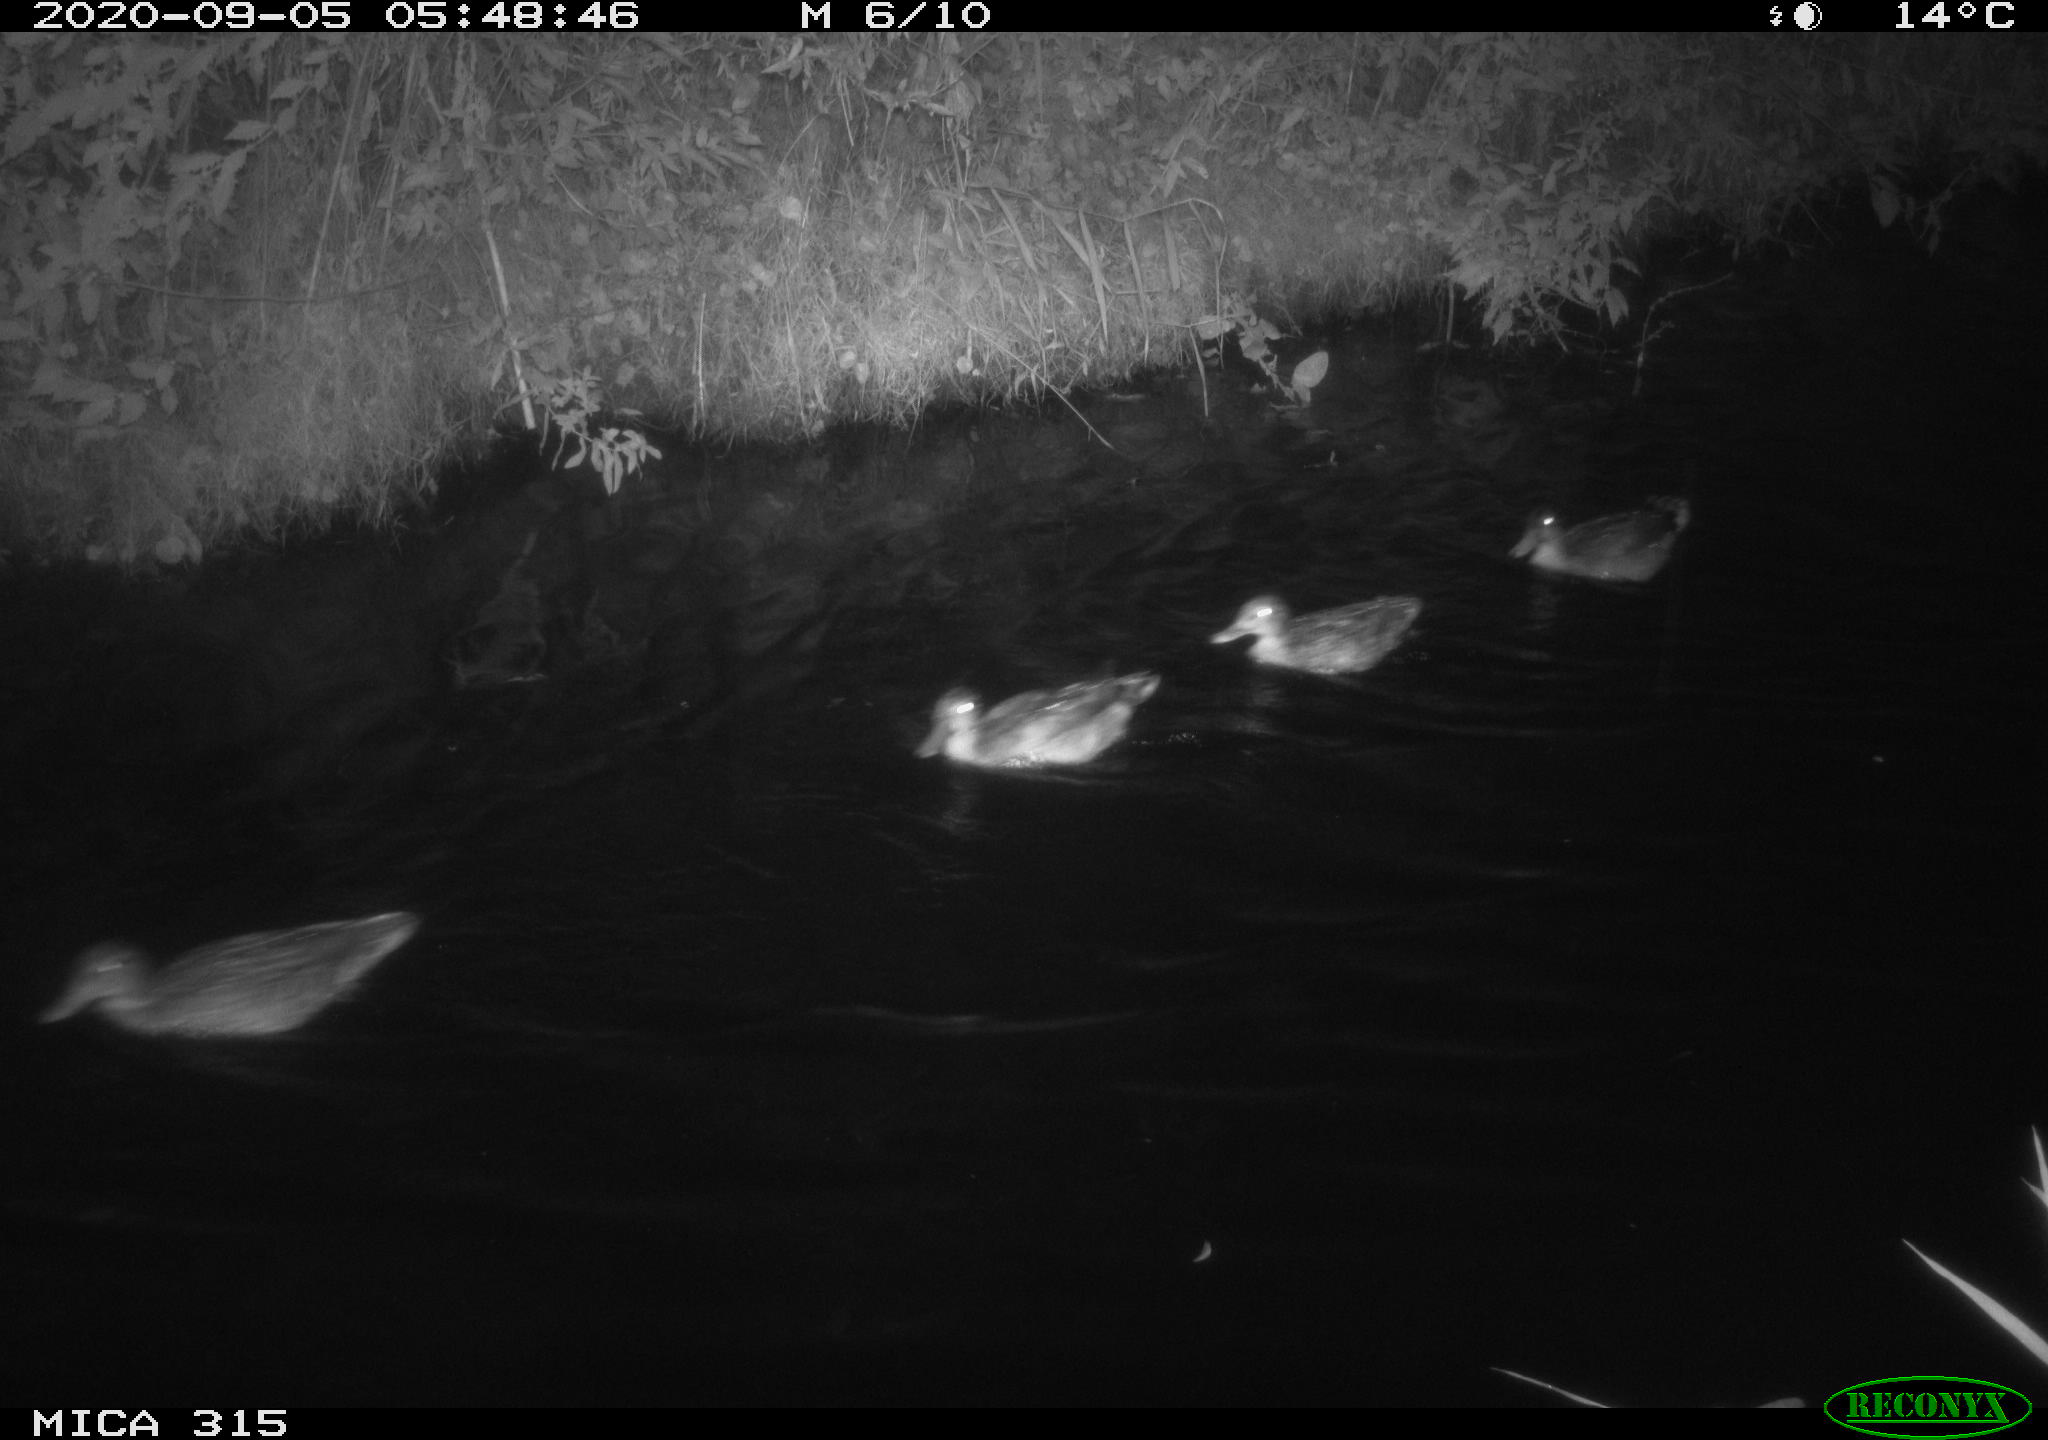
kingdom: Animalia
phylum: Chordata
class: Aves
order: Anseriformes
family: Anatidae
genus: Anas
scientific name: Anas platyrhynchos
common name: Mallard
